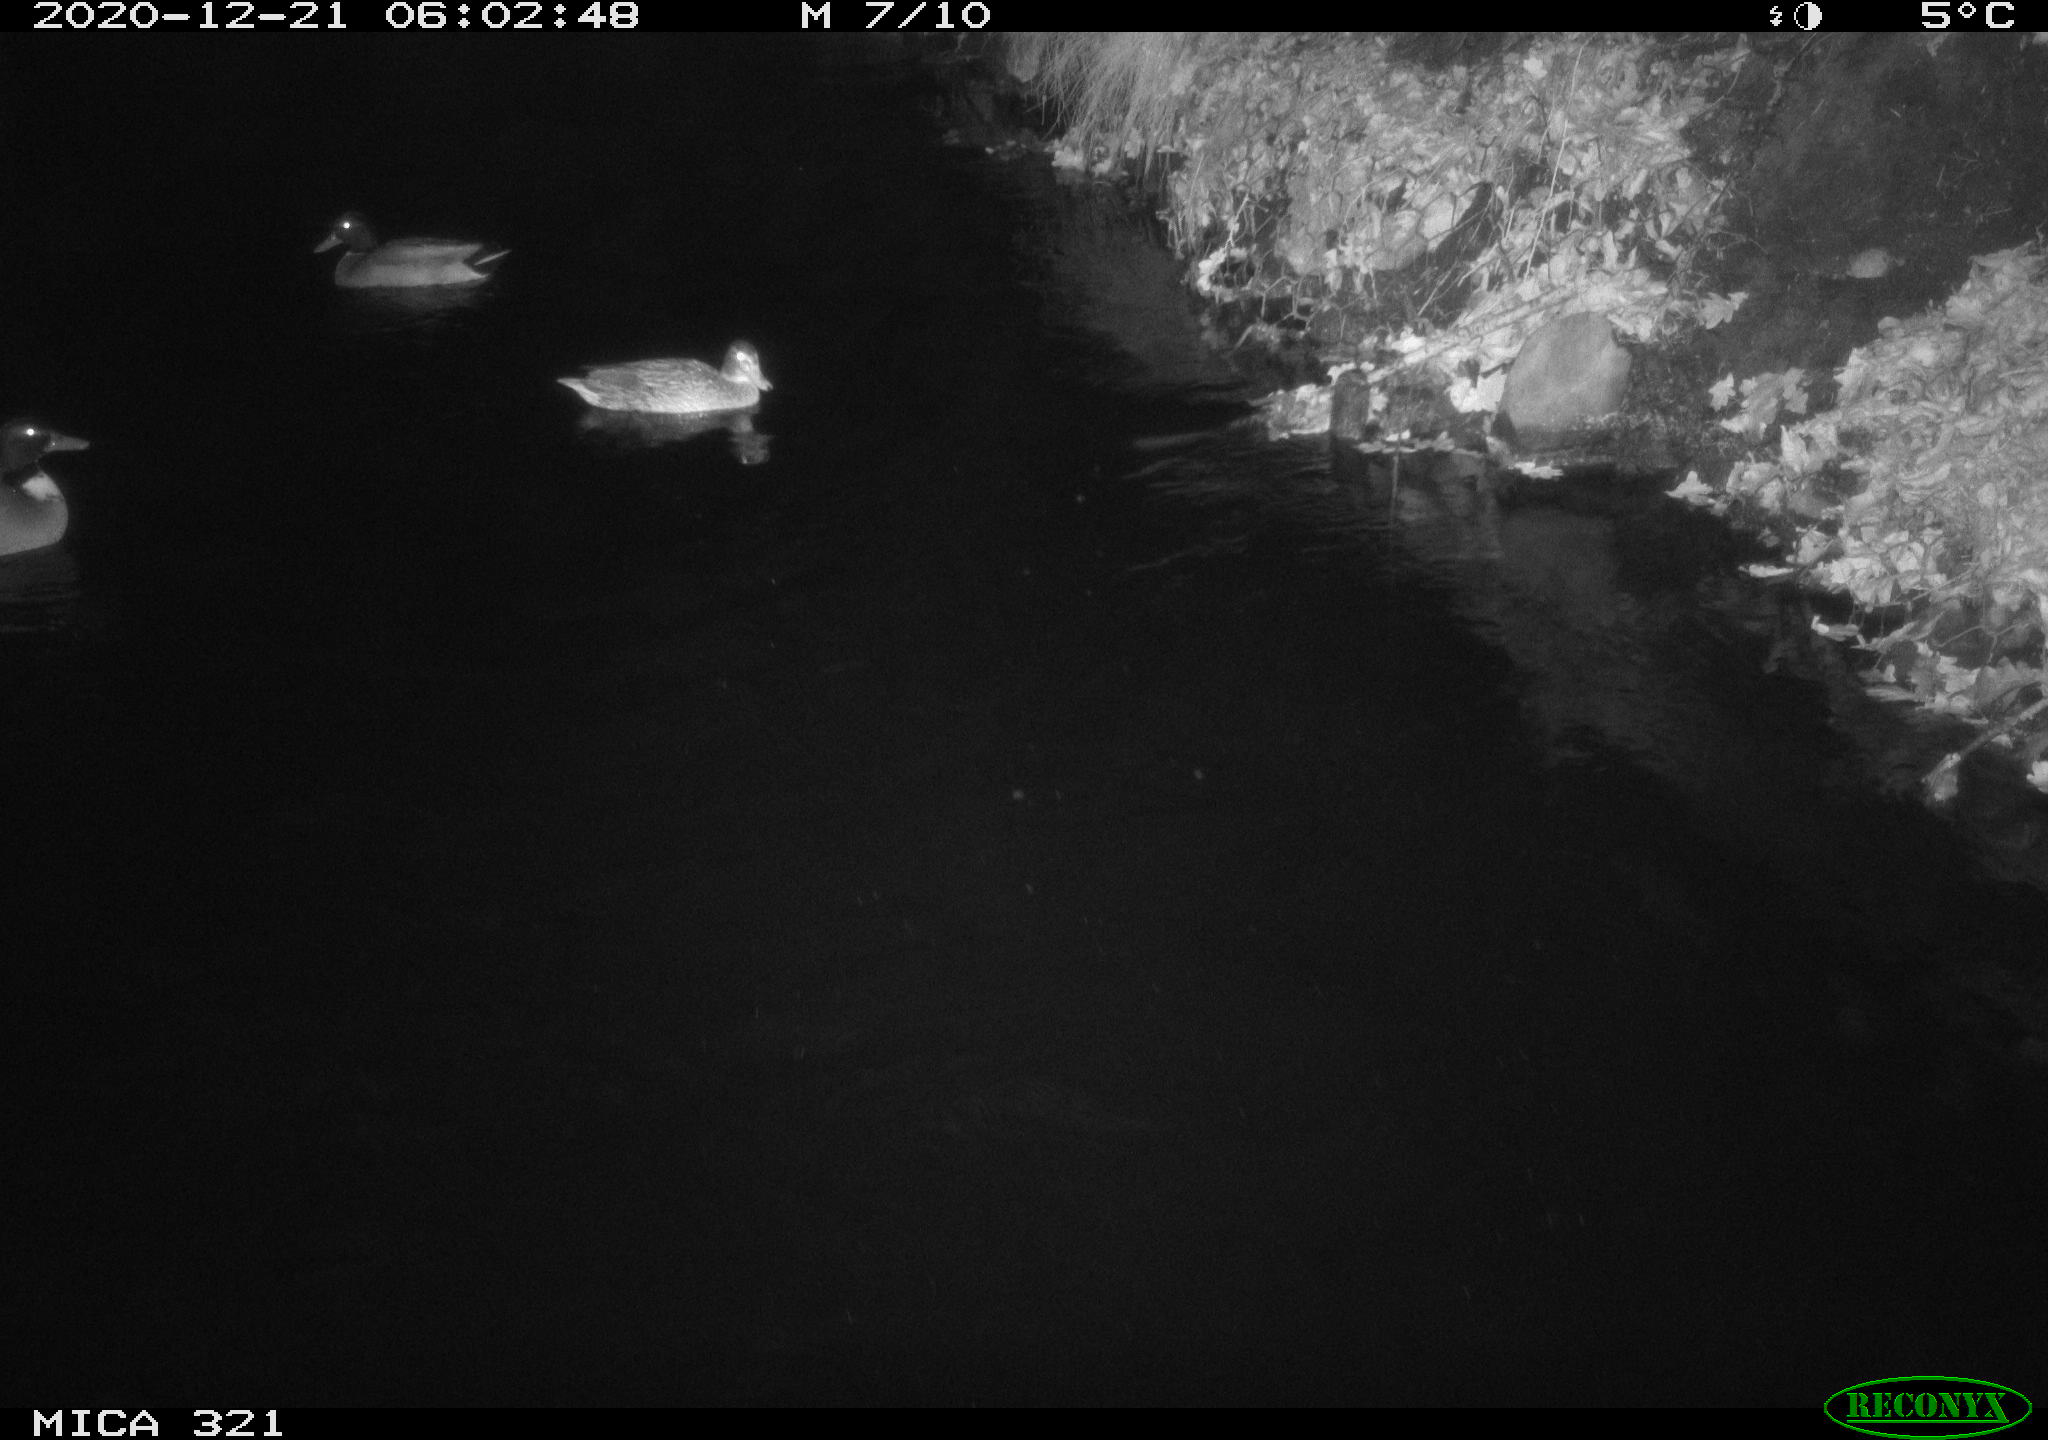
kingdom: Animalia
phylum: Chordata
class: Aves
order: Anseriformes
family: Anatidae
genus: Anas
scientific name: Anas platyrhynchos
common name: Mallard
